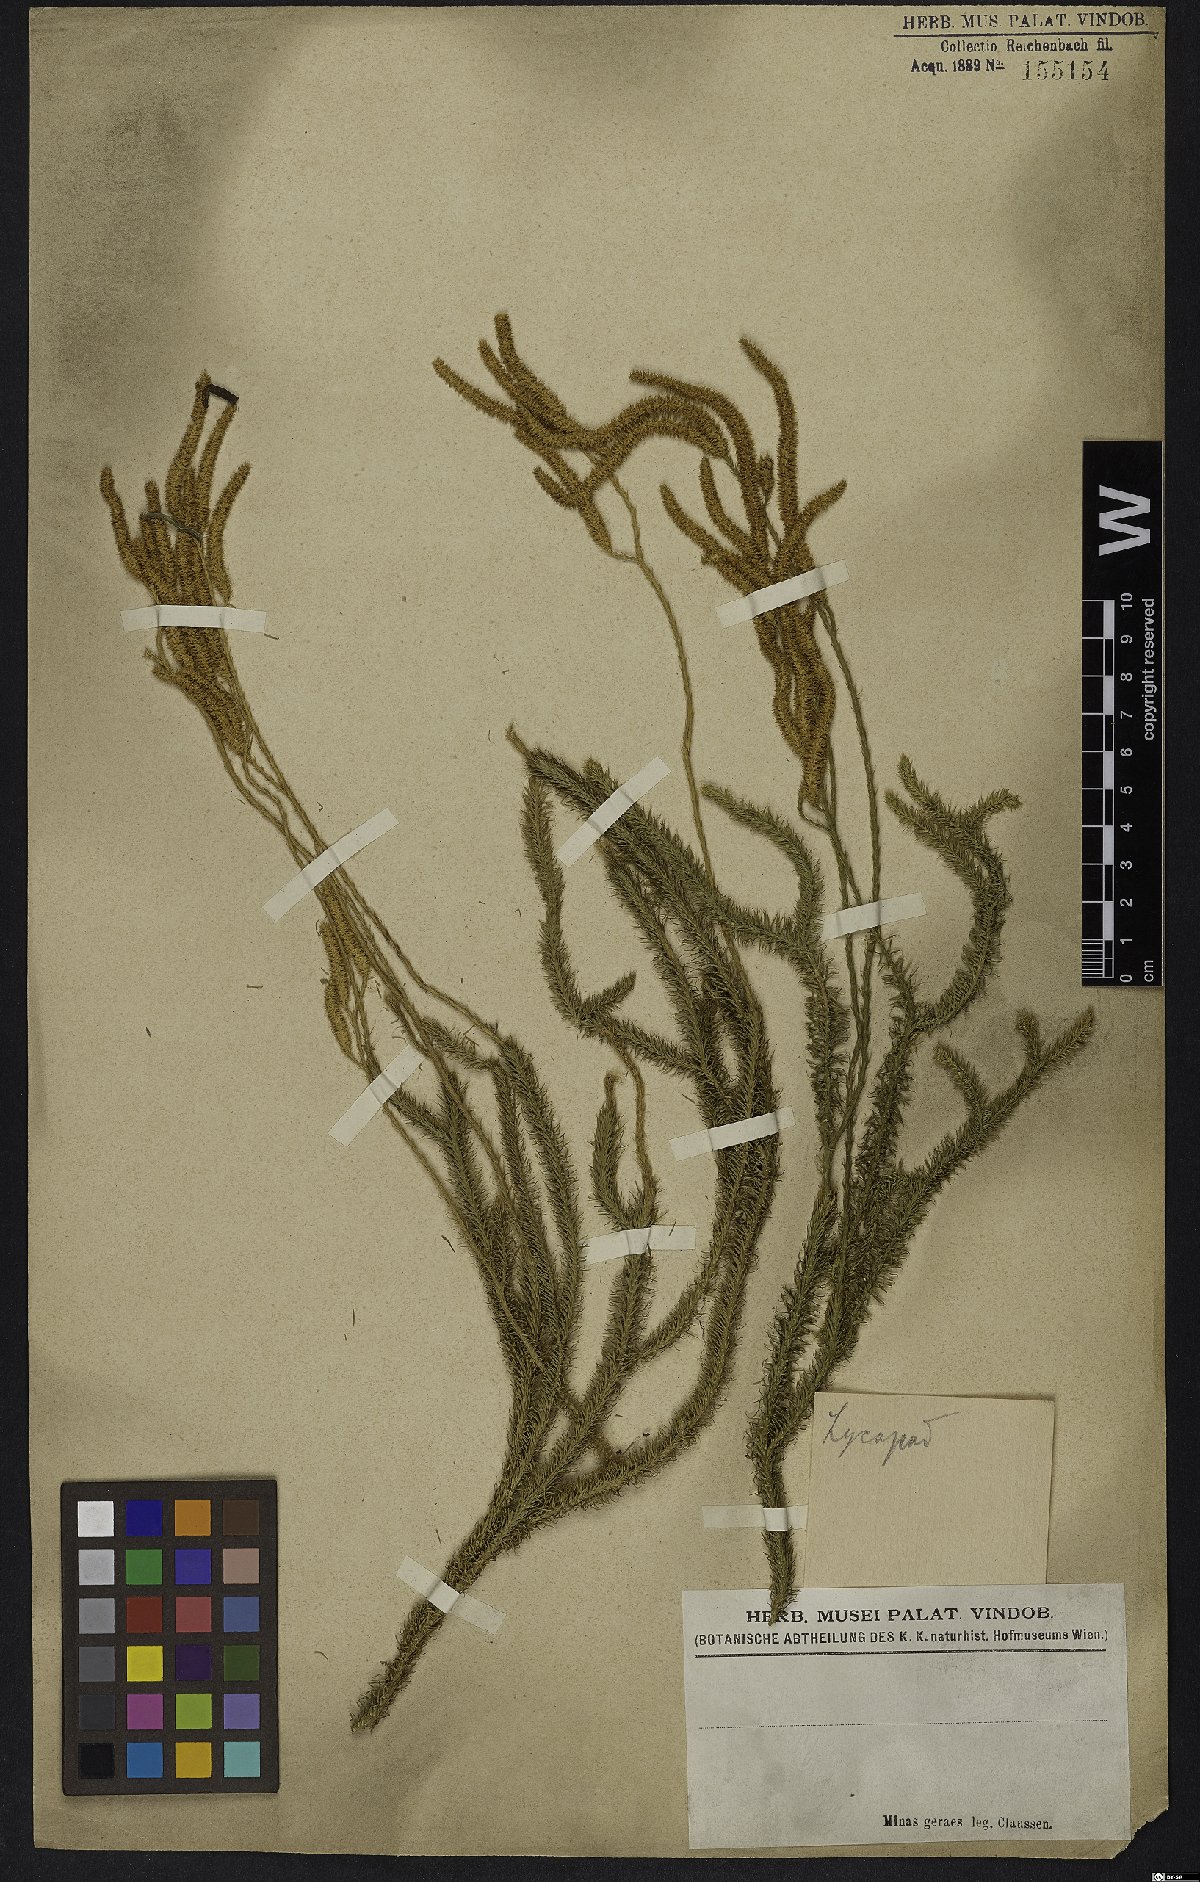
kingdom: Plantae
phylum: Tracheophyta
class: Lycopodiopsida
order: Lycopodiales
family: Lycopodiaceae
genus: Lycopodium
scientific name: Lycopodium
